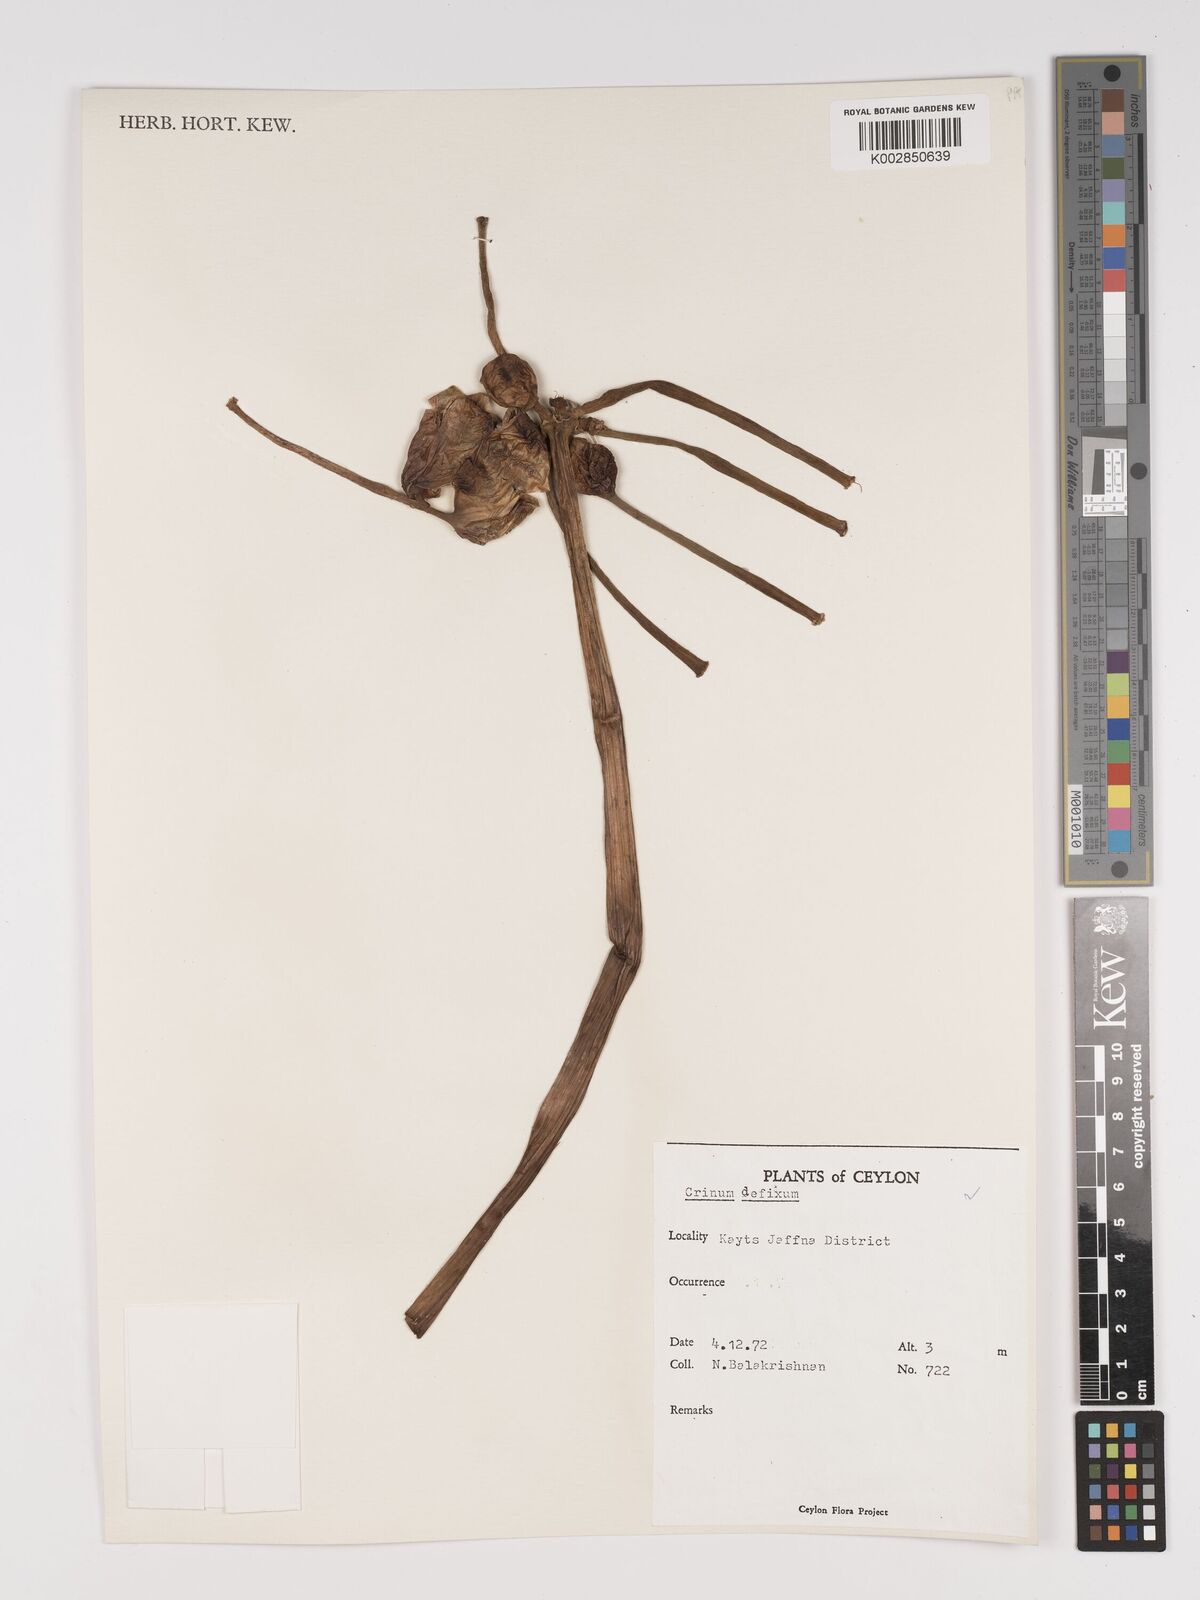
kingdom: Plantae
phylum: Tracheophyta
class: Liliopsida
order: Asparagales
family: Amaryllidaceae
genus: Crinum
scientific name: Crinum defixum
